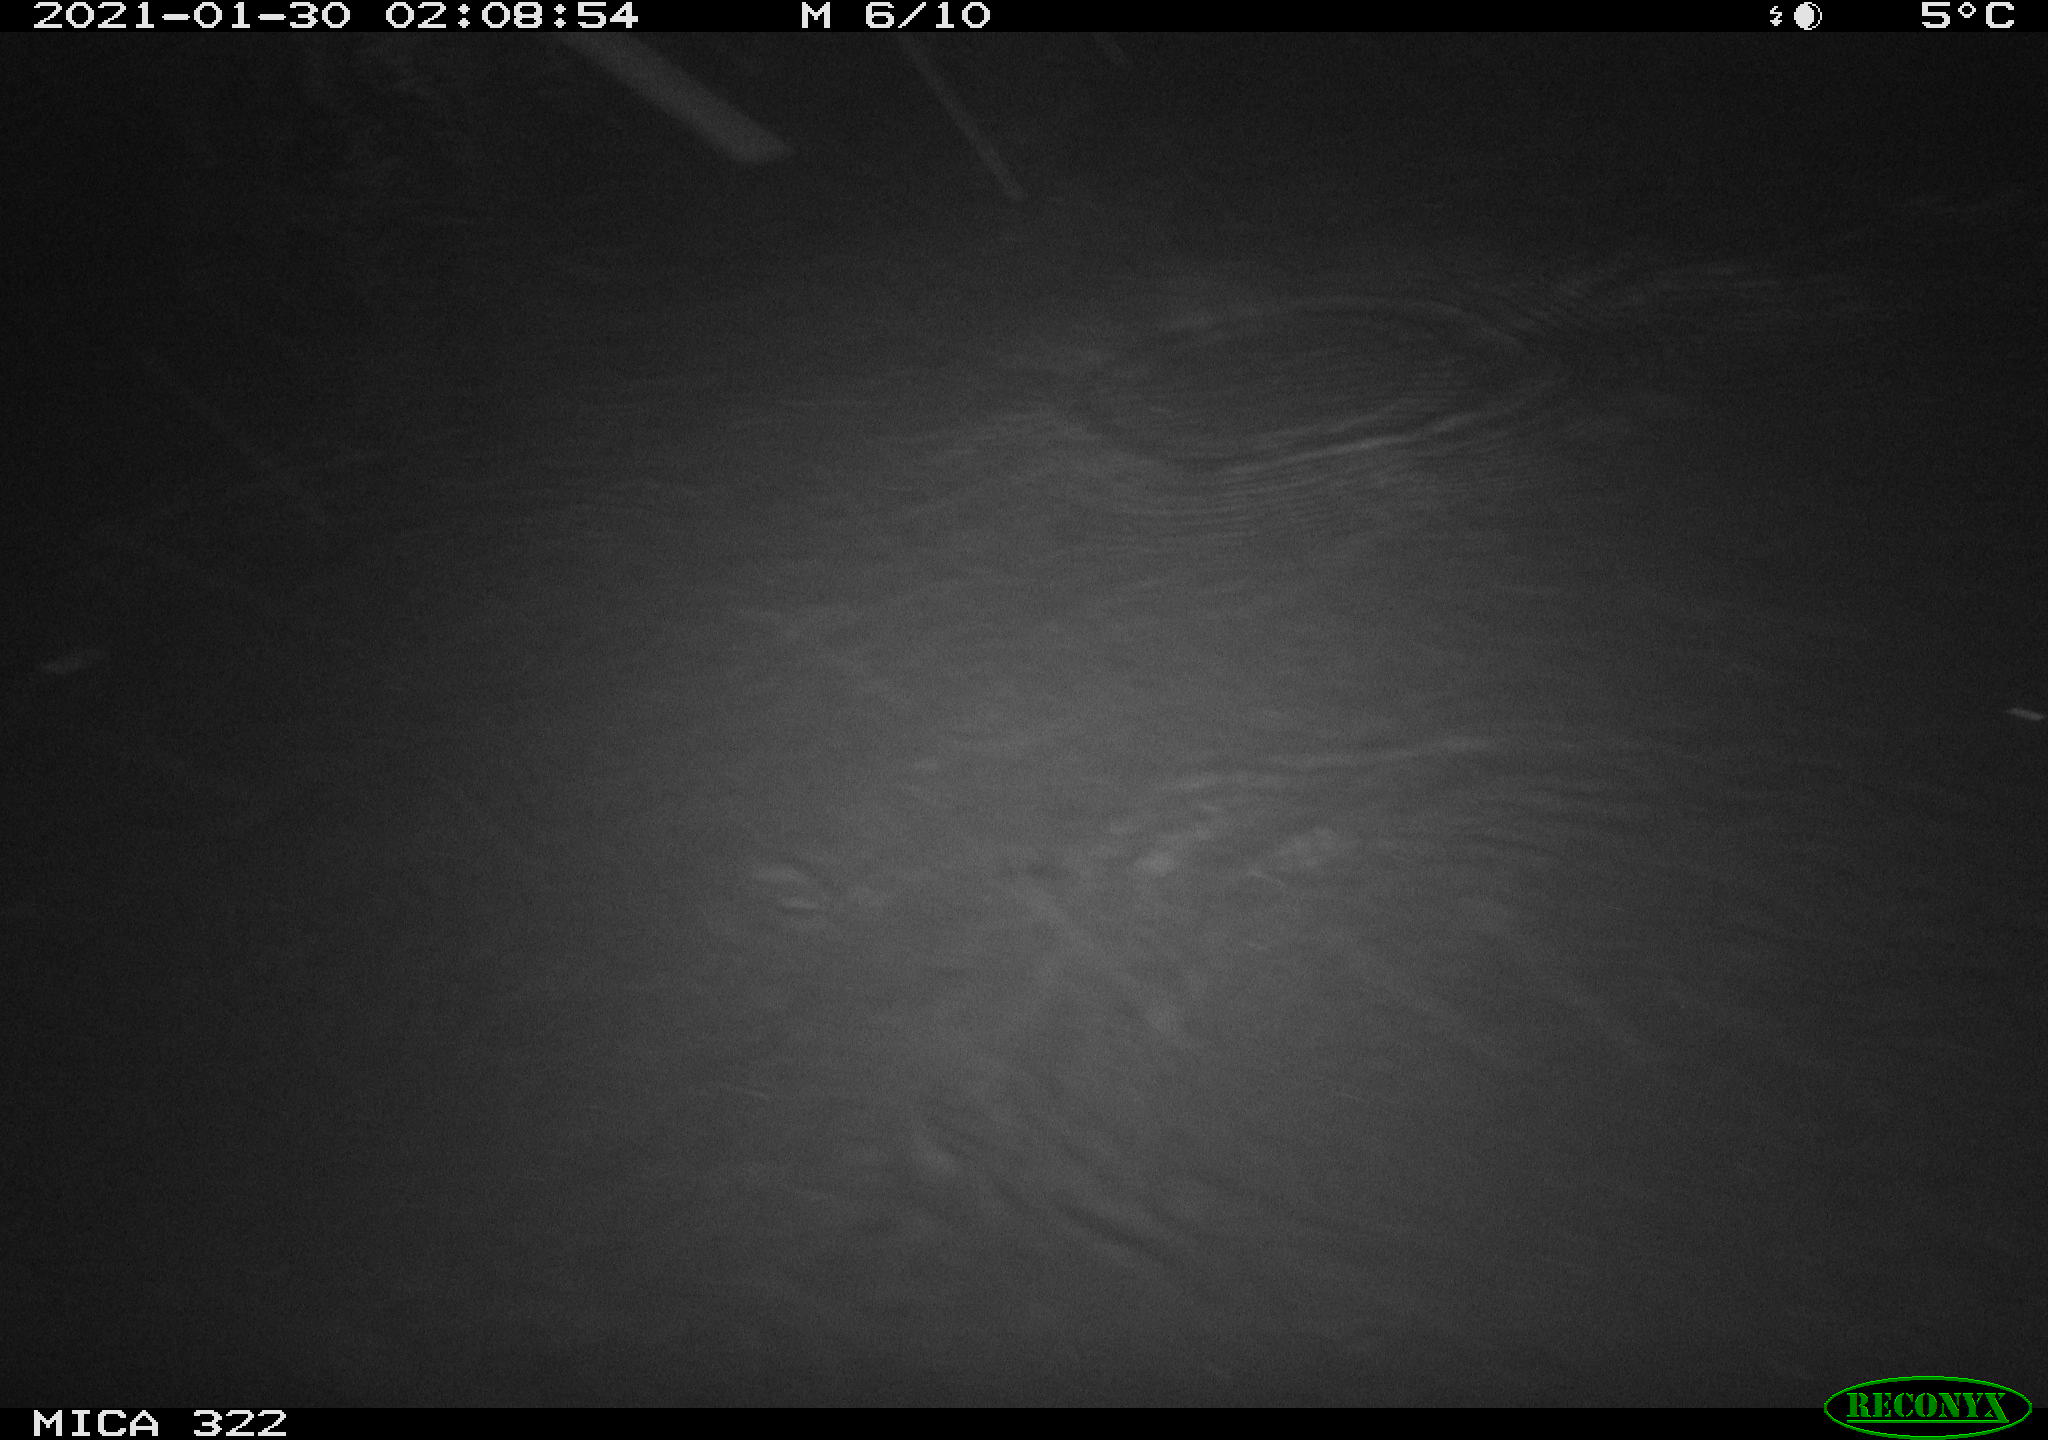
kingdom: Animalia
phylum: Chordata
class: Mammalia
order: Rodentia
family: Muridae
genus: Rattus
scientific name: Rattus norvegicus
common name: Brown rat
